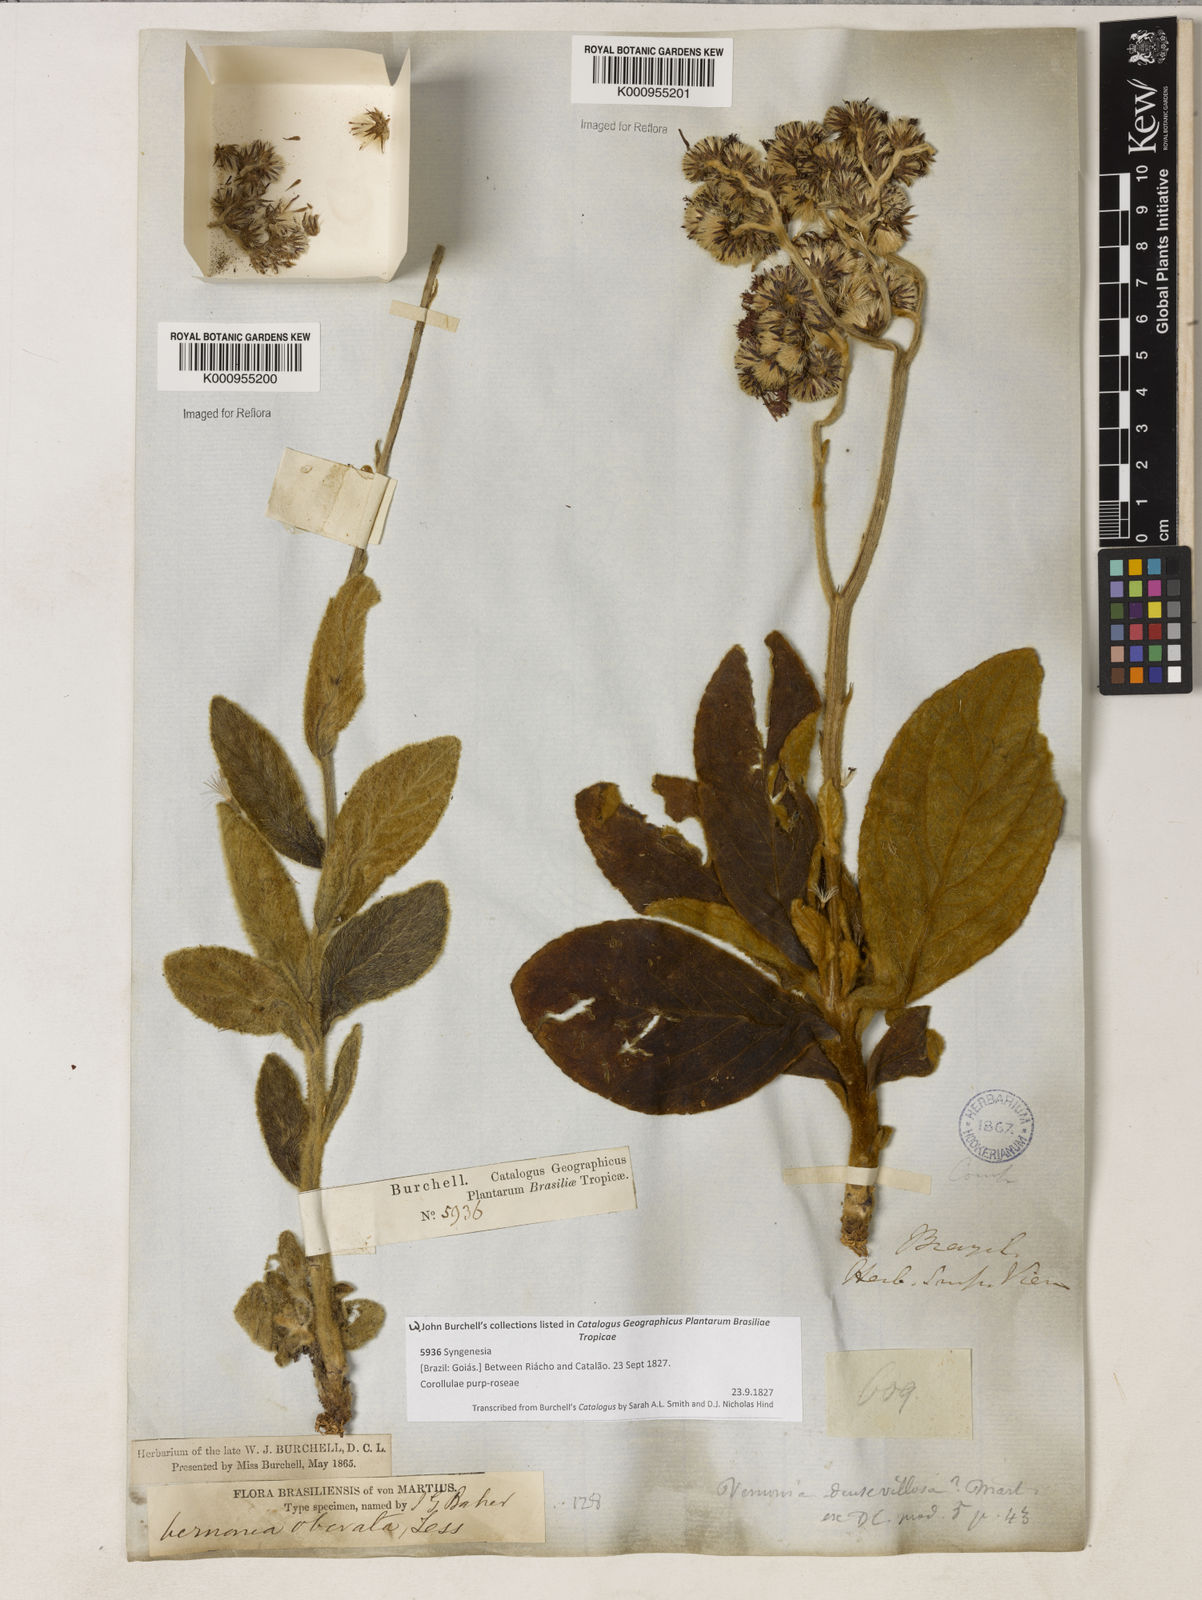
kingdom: Plantae
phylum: Tracheophyta
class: Magnoliopsida
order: Asterales
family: Asteraceae
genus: Chrysolaena
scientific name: Chrysolaena obovata
